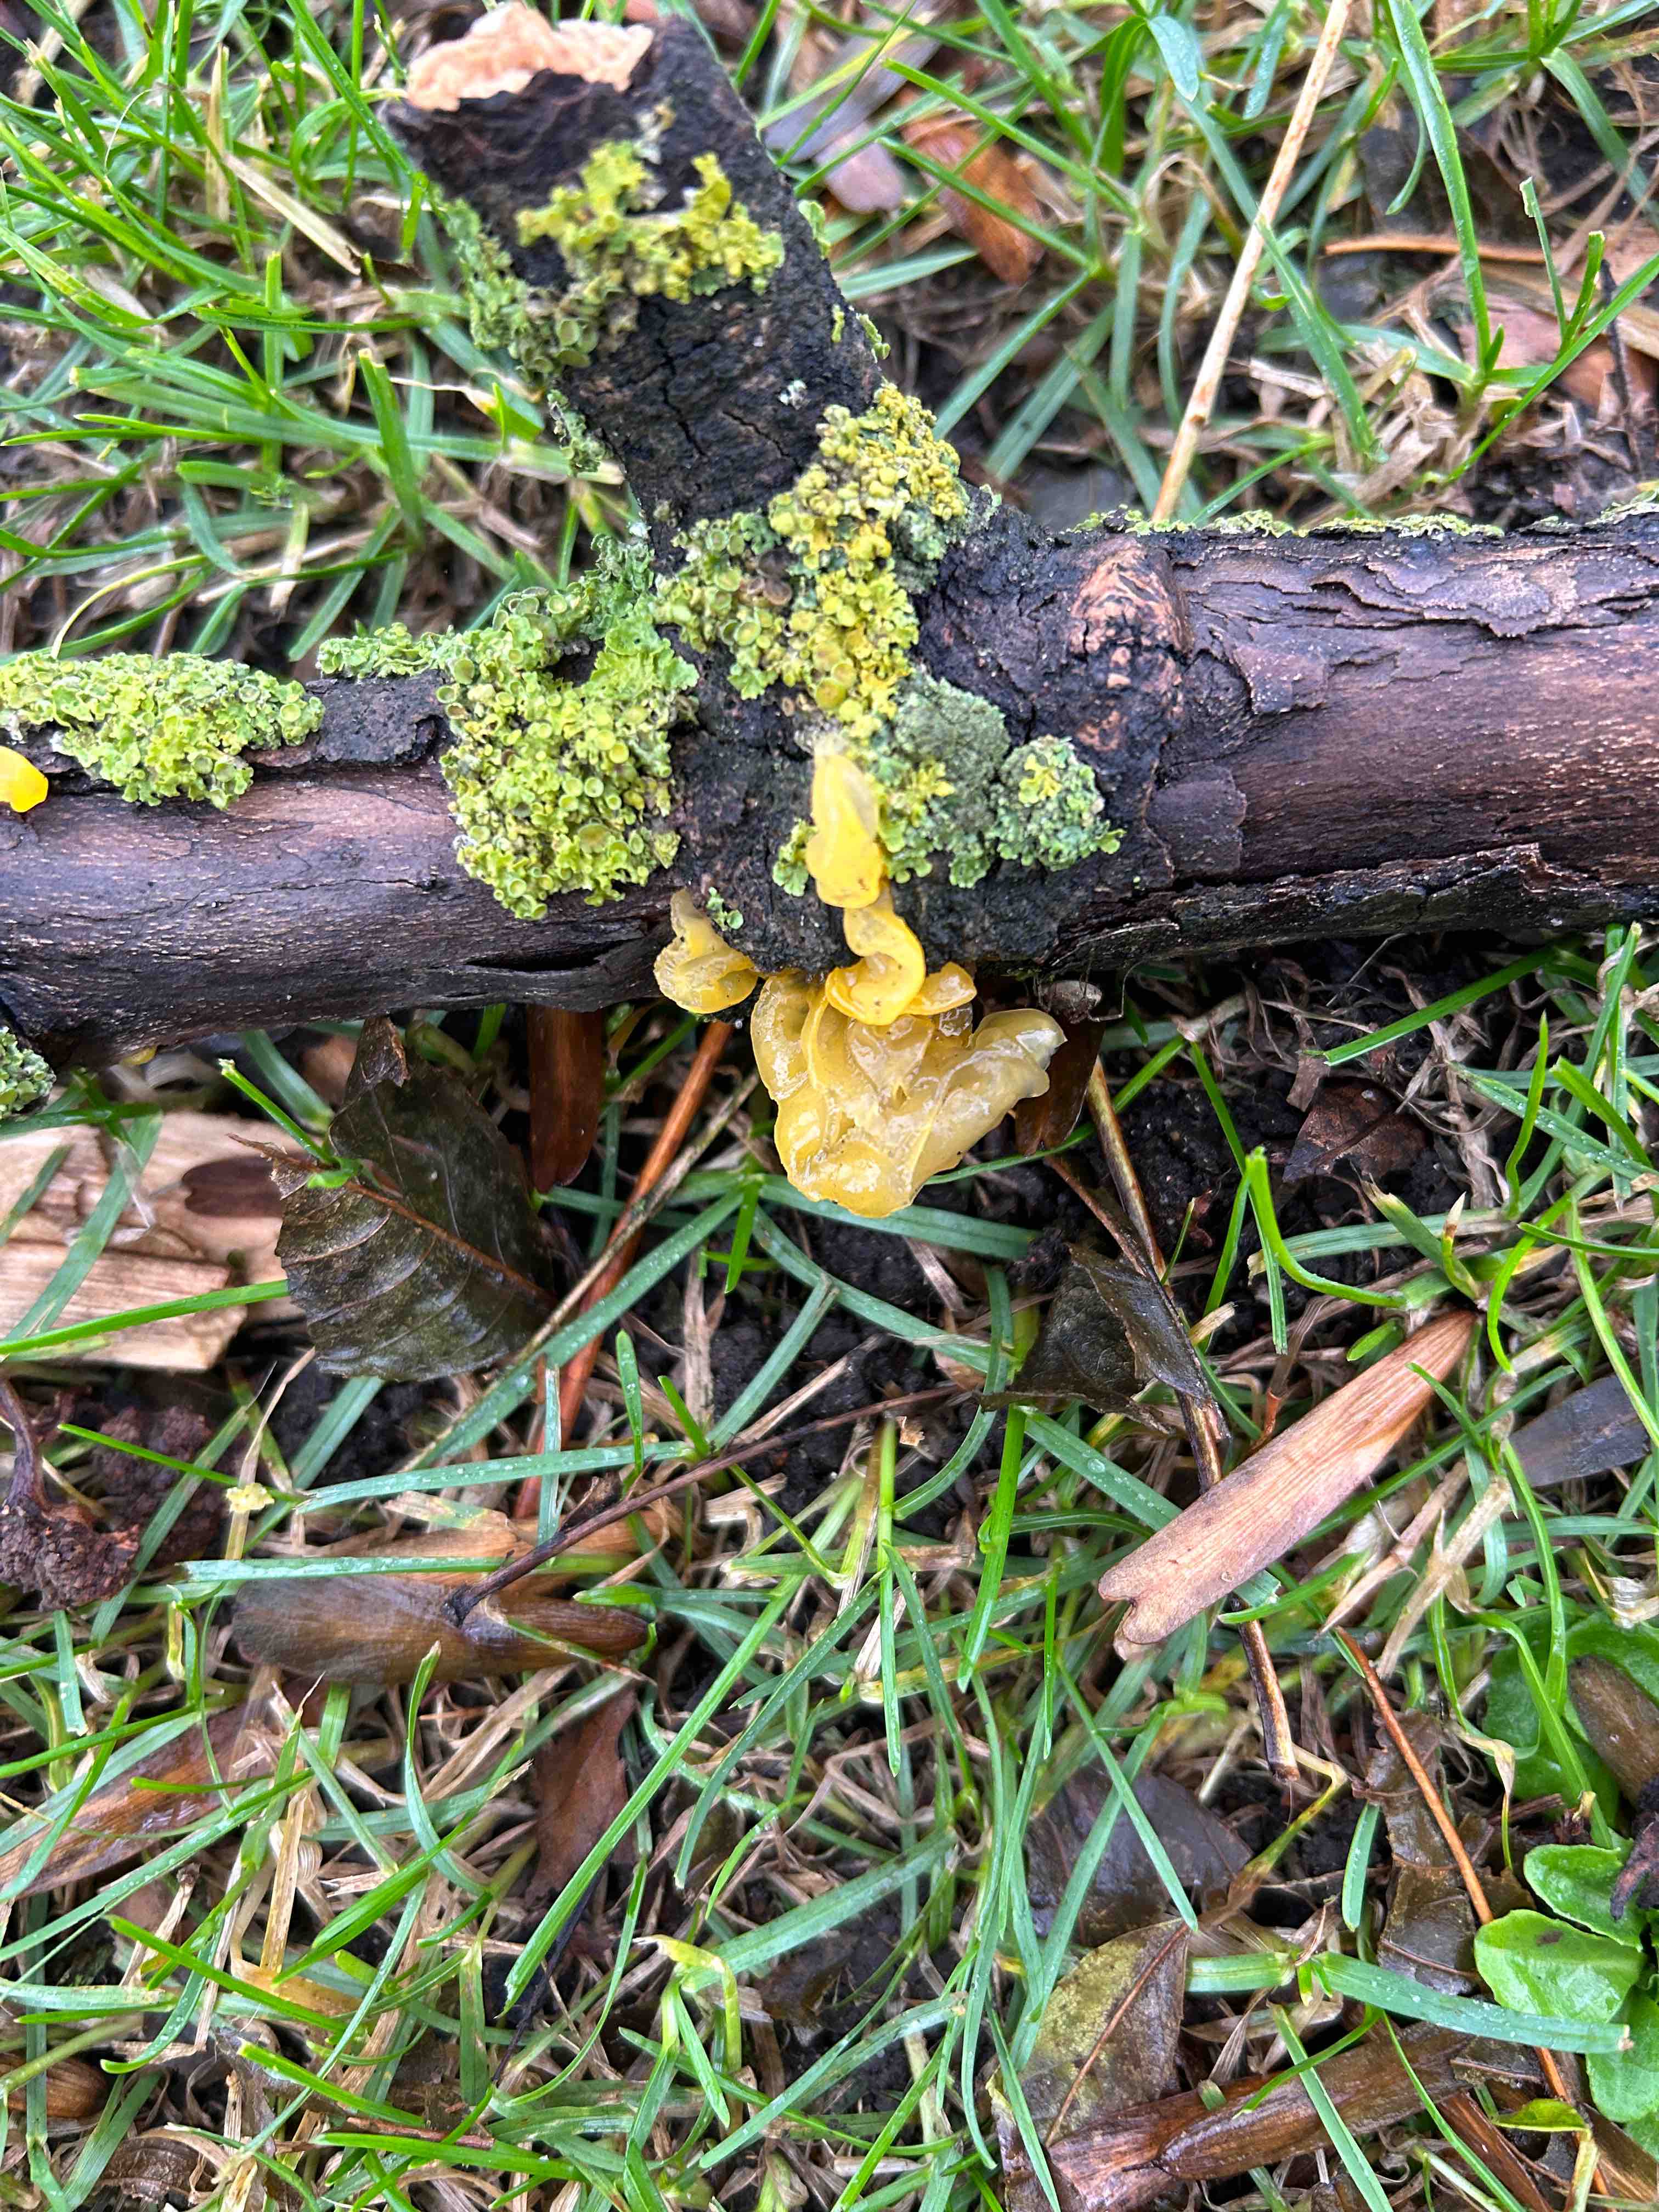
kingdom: Fungi
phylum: Basidiomycota
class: Tremellomycetes
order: Tremellales
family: Tremellaceae
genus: Tremella
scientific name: Tremella mesenterica
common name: gul bævresvamp
